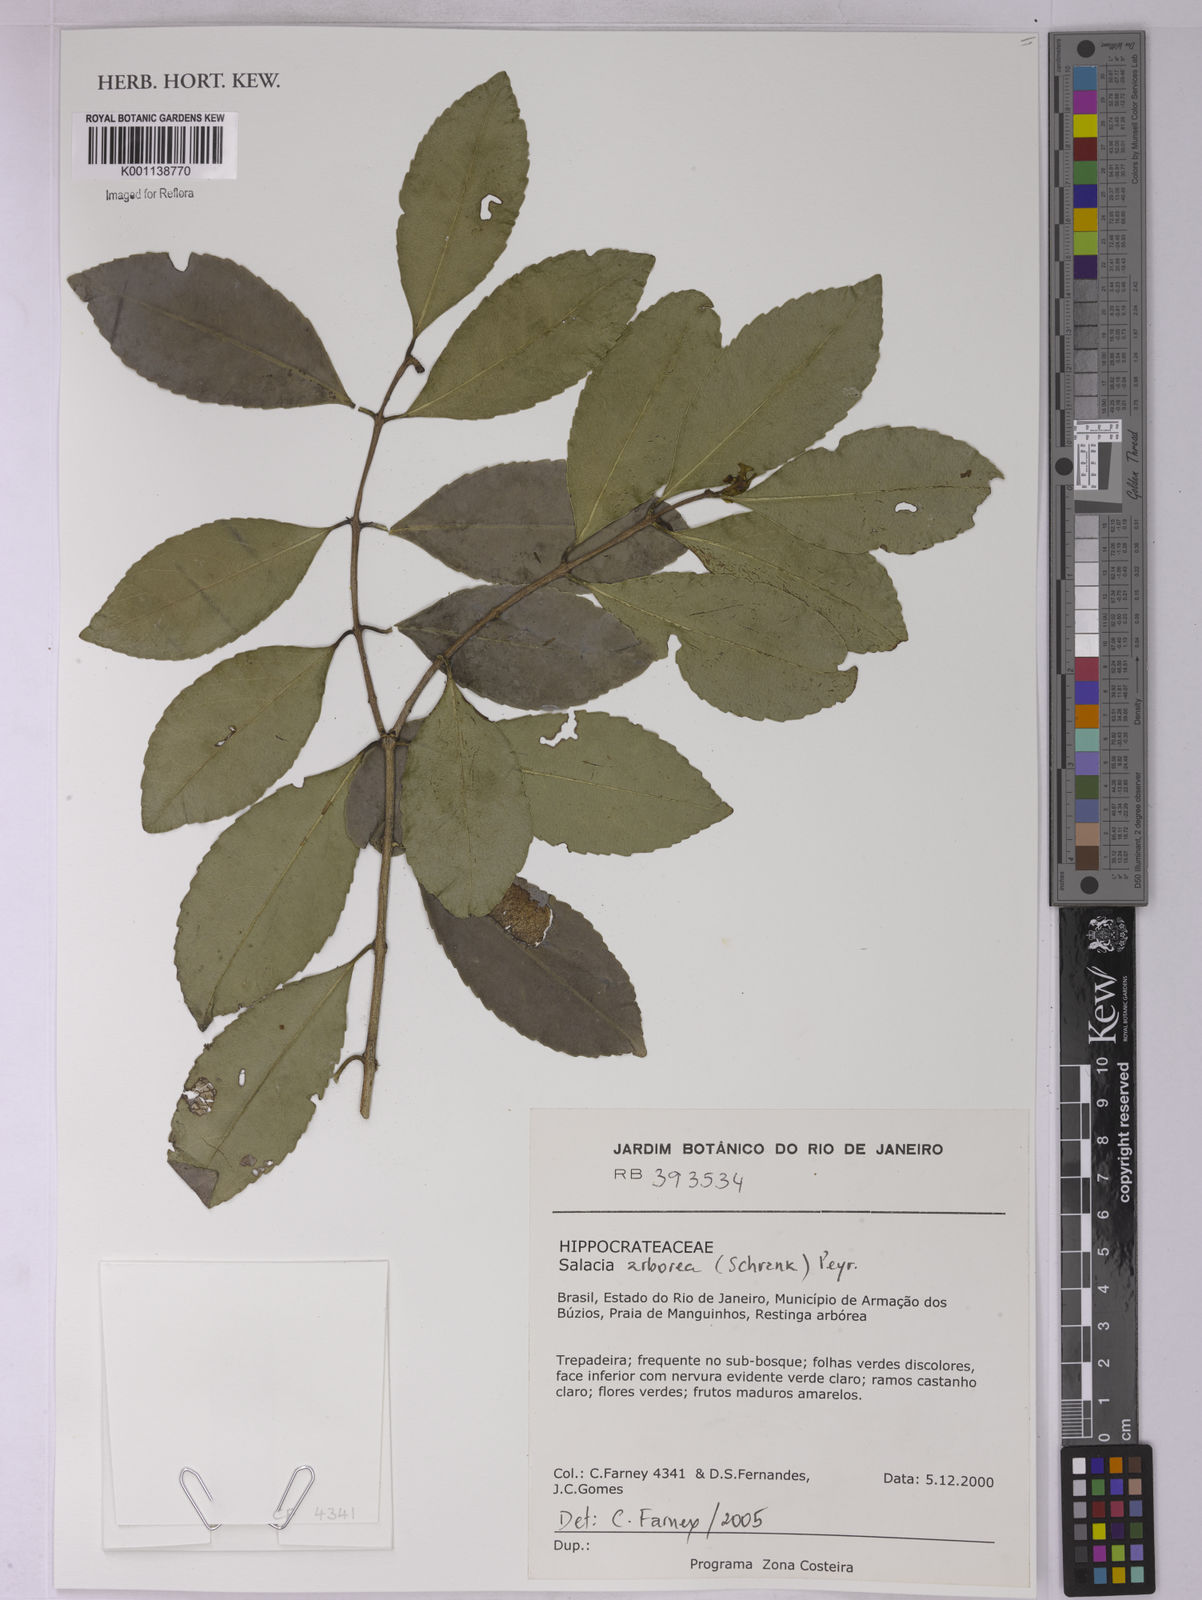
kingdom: Plantae
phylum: Tracheophyta
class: Magnoliopsida
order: Celastrales
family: Celastraceae
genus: Salacia
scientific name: Salacia arborea
